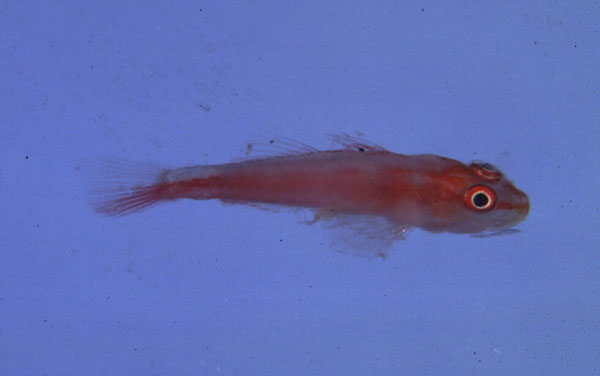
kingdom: Animalia
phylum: Chordata
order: Perciformes
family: Gobiidae
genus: Pleurosicya
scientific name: Pleurosicya mossambica
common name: Common ghost goby
